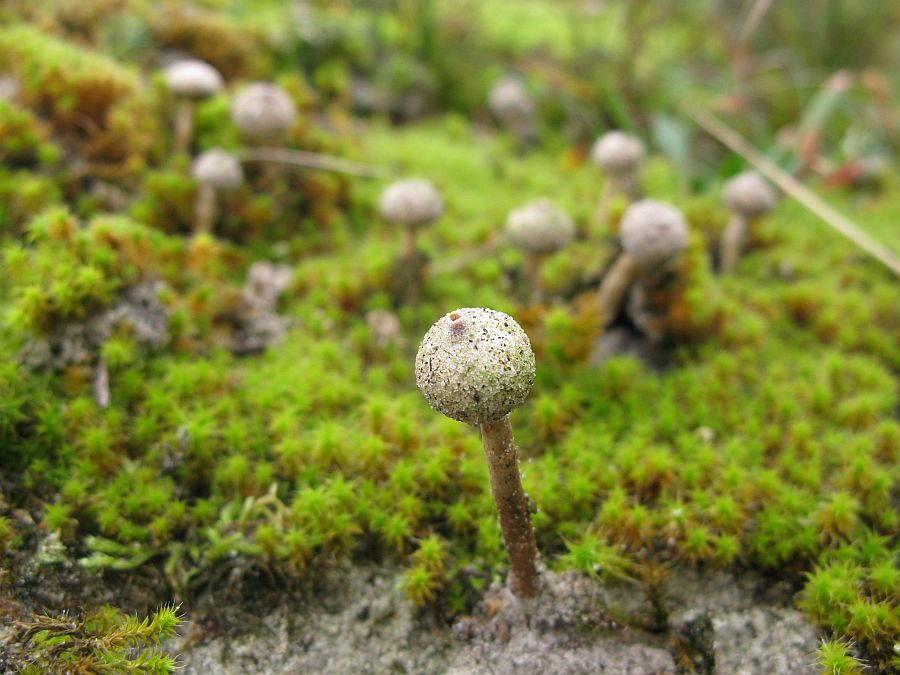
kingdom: Fungi
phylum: Basidiomycota
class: Agaricomycetes
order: Agaricales
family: Agaricaceae
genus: Tulostoma
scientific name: Tulostoma brumale
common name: vinter-stilkbovist
